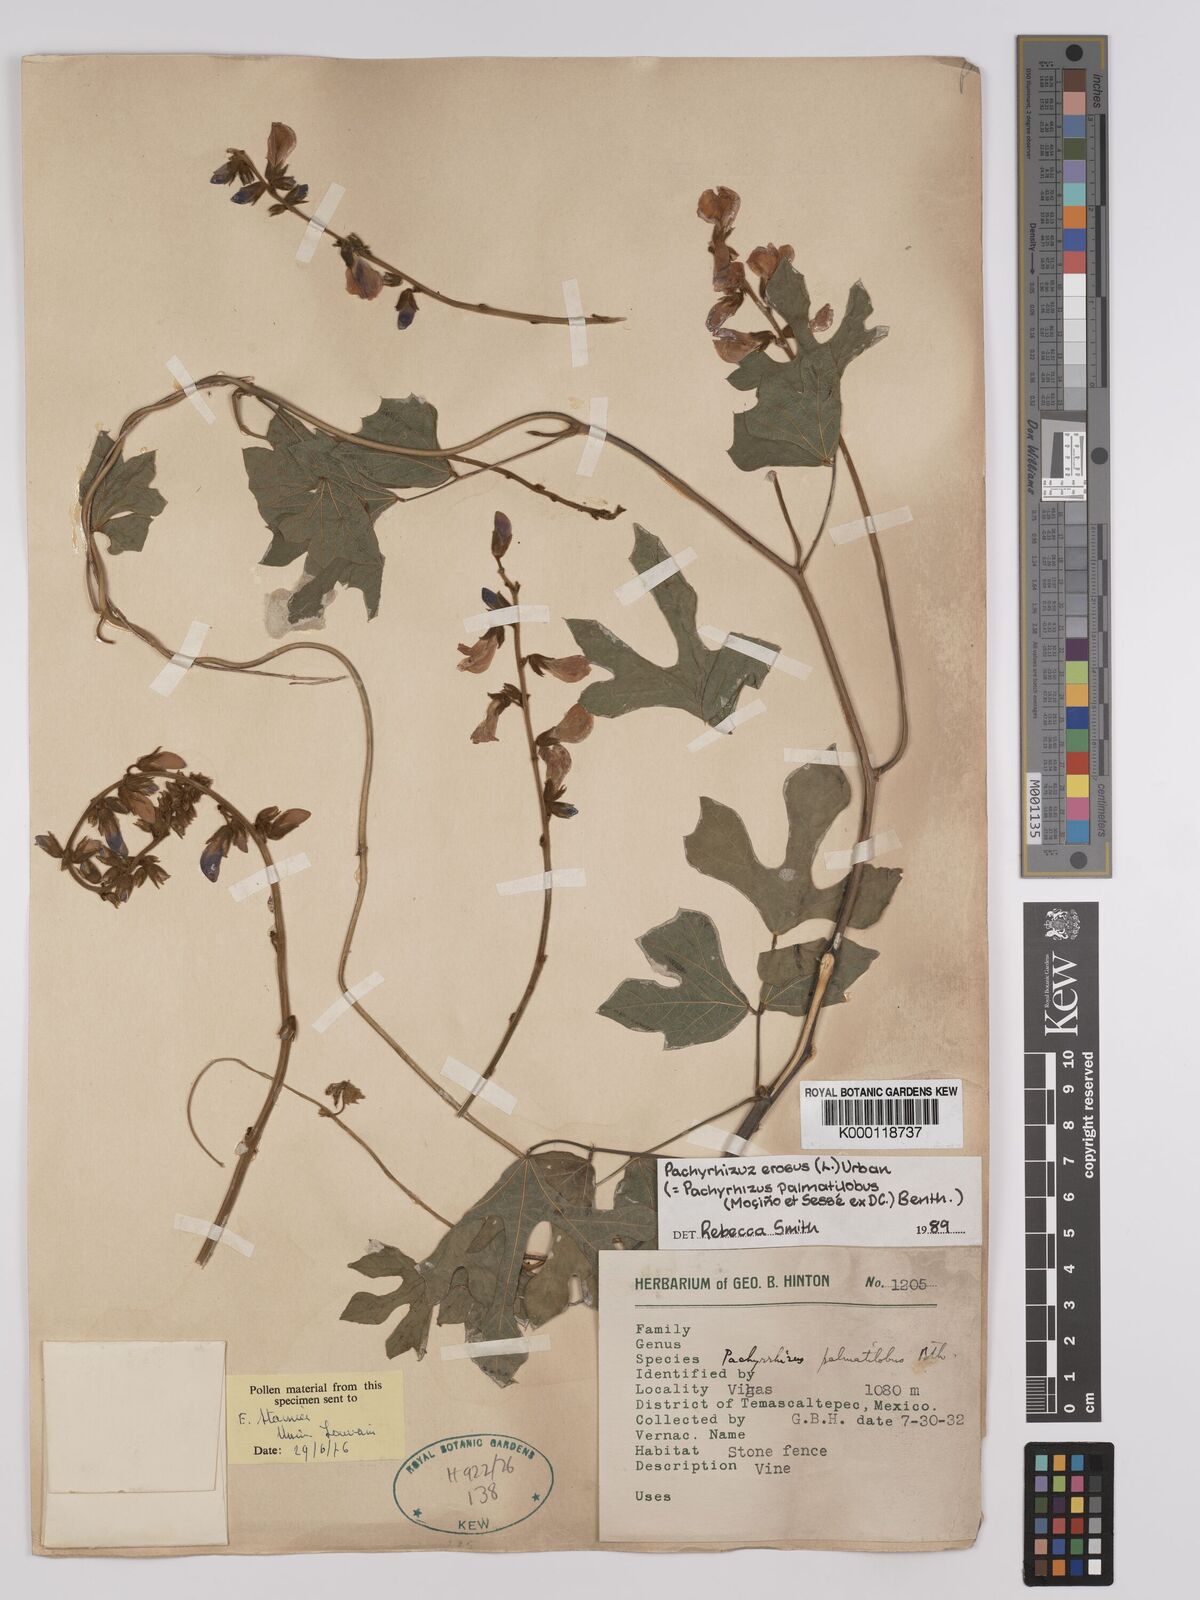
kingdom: Plantae
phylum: Tracheophyta
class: Magnoliopsida
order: Fabales
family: Fabaceae
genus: Pachyrhizus
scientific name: Pachyrhizus erosus
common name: Yam bean
